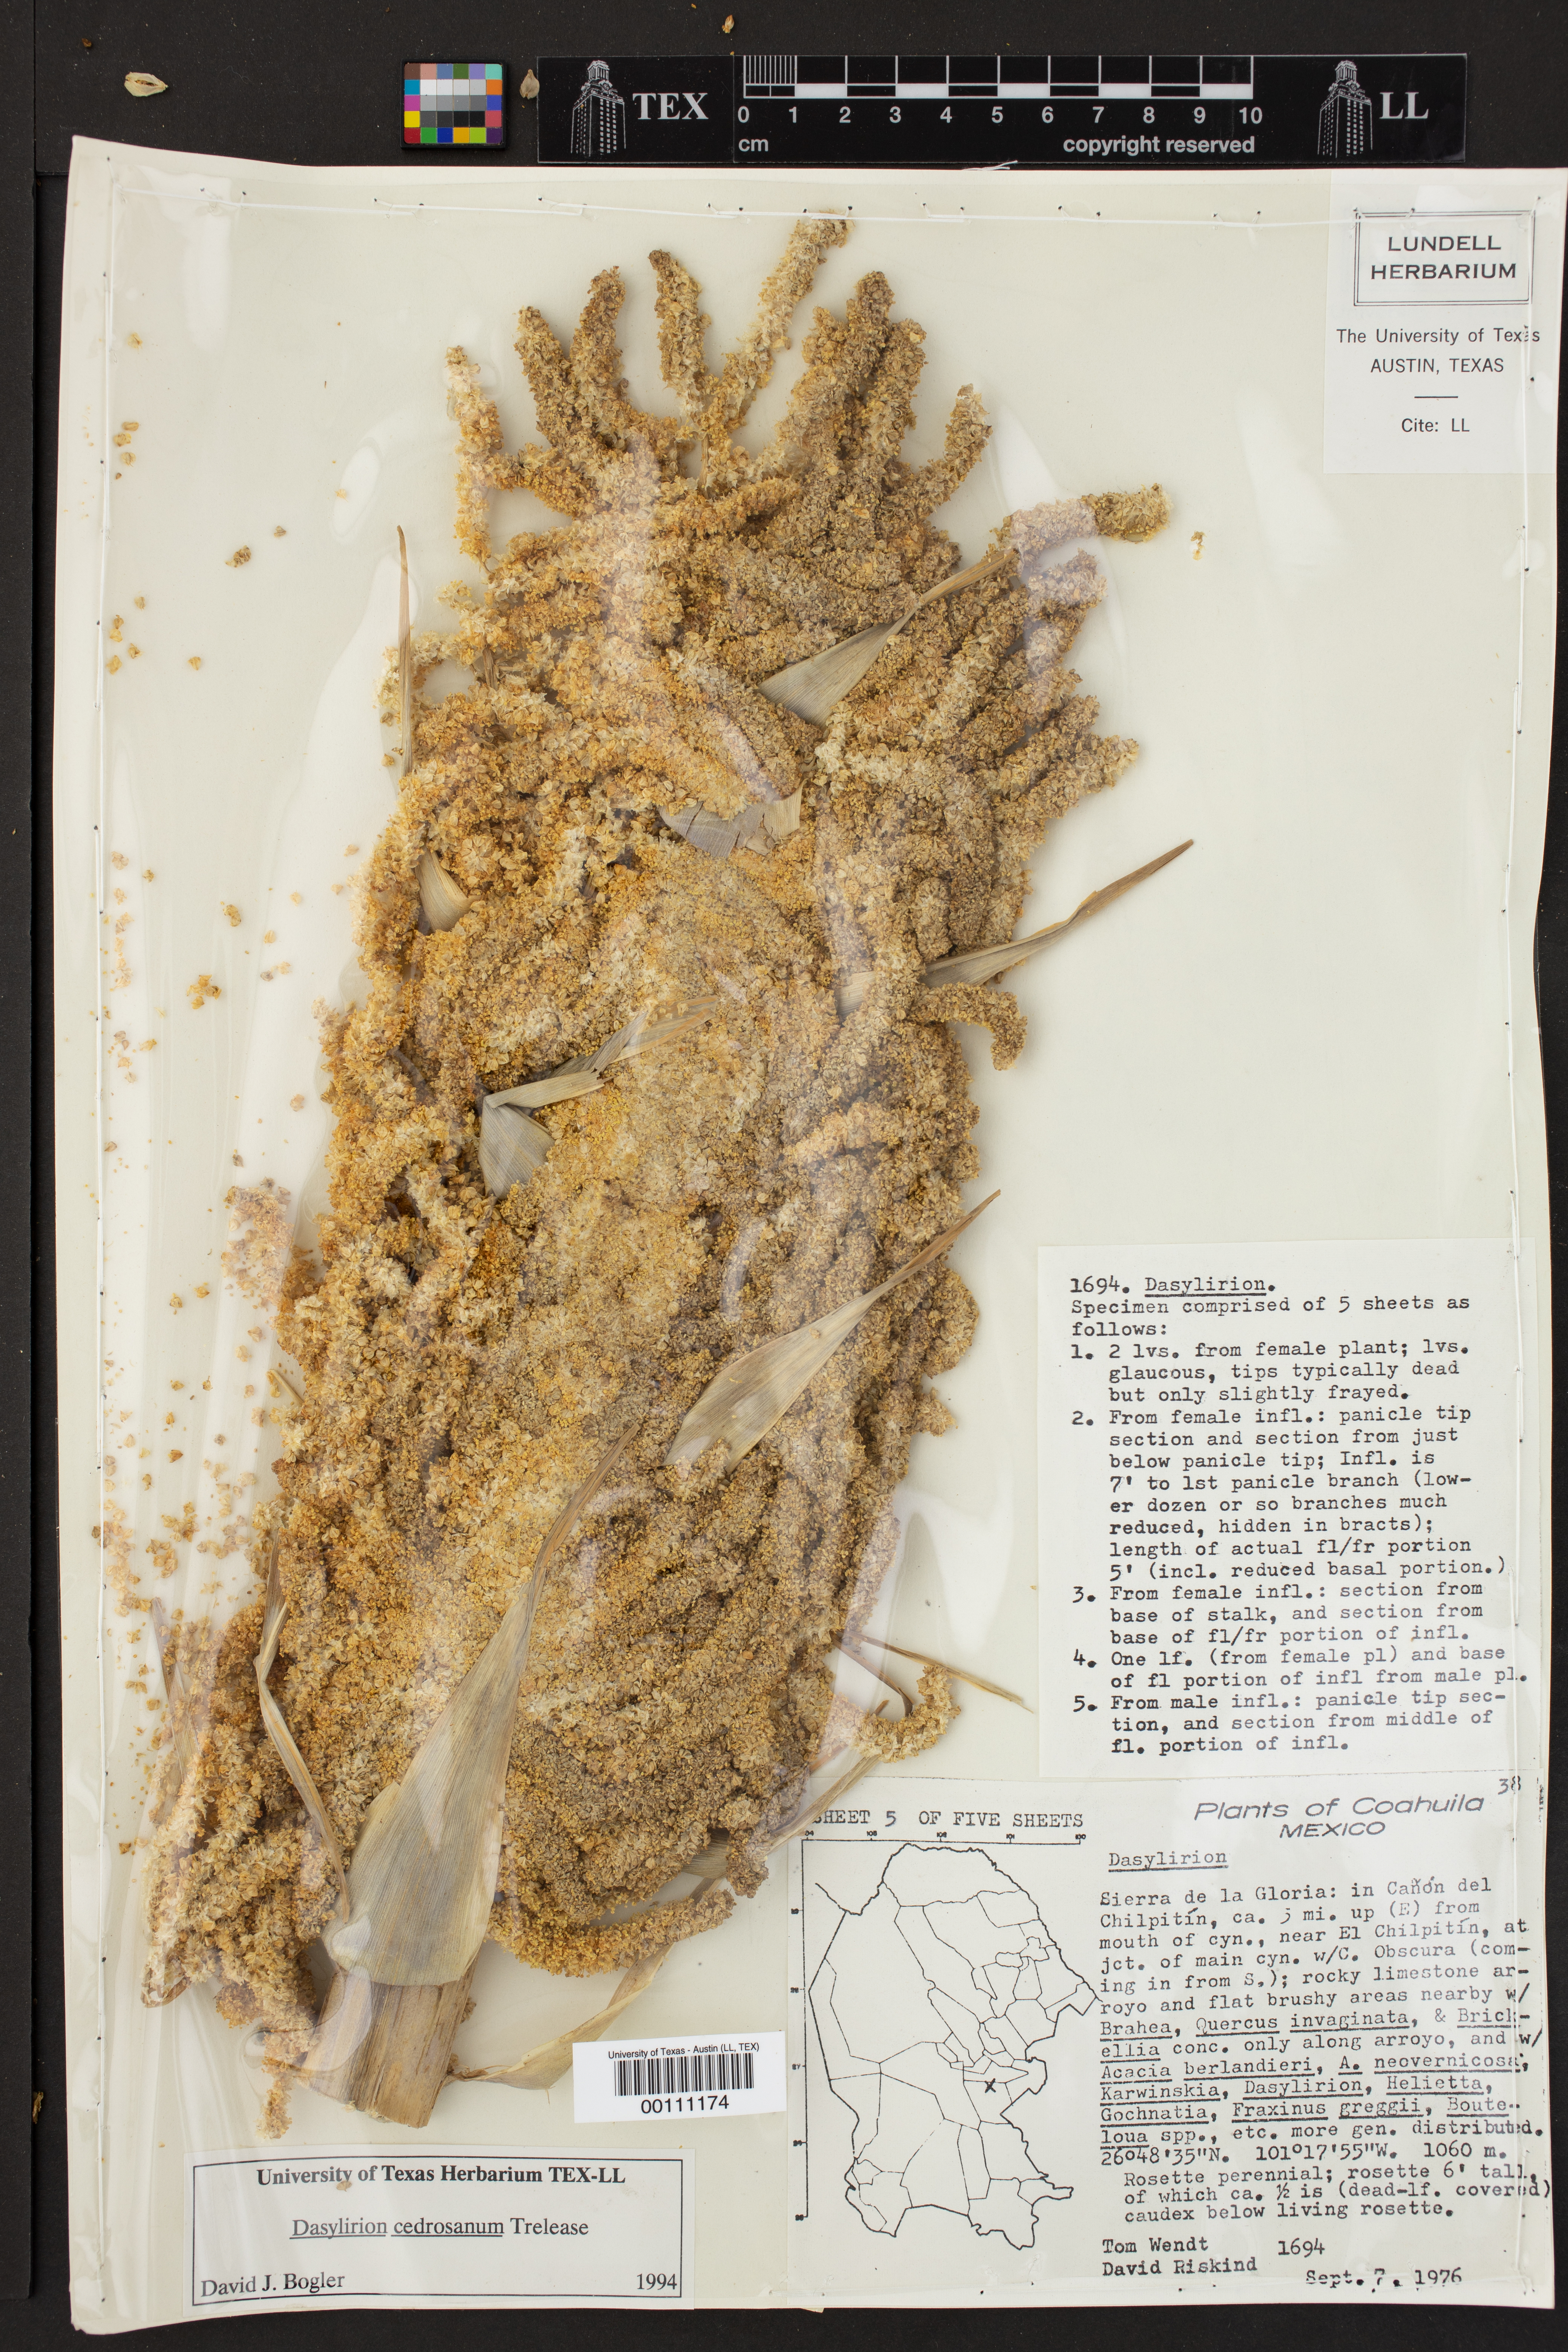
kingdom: Plantae
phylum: Tracheophyta
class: Liliopsida
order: Asparagales
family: Asparagaceae
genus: Dasylirion
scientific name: Dasylirion cedrosanum
